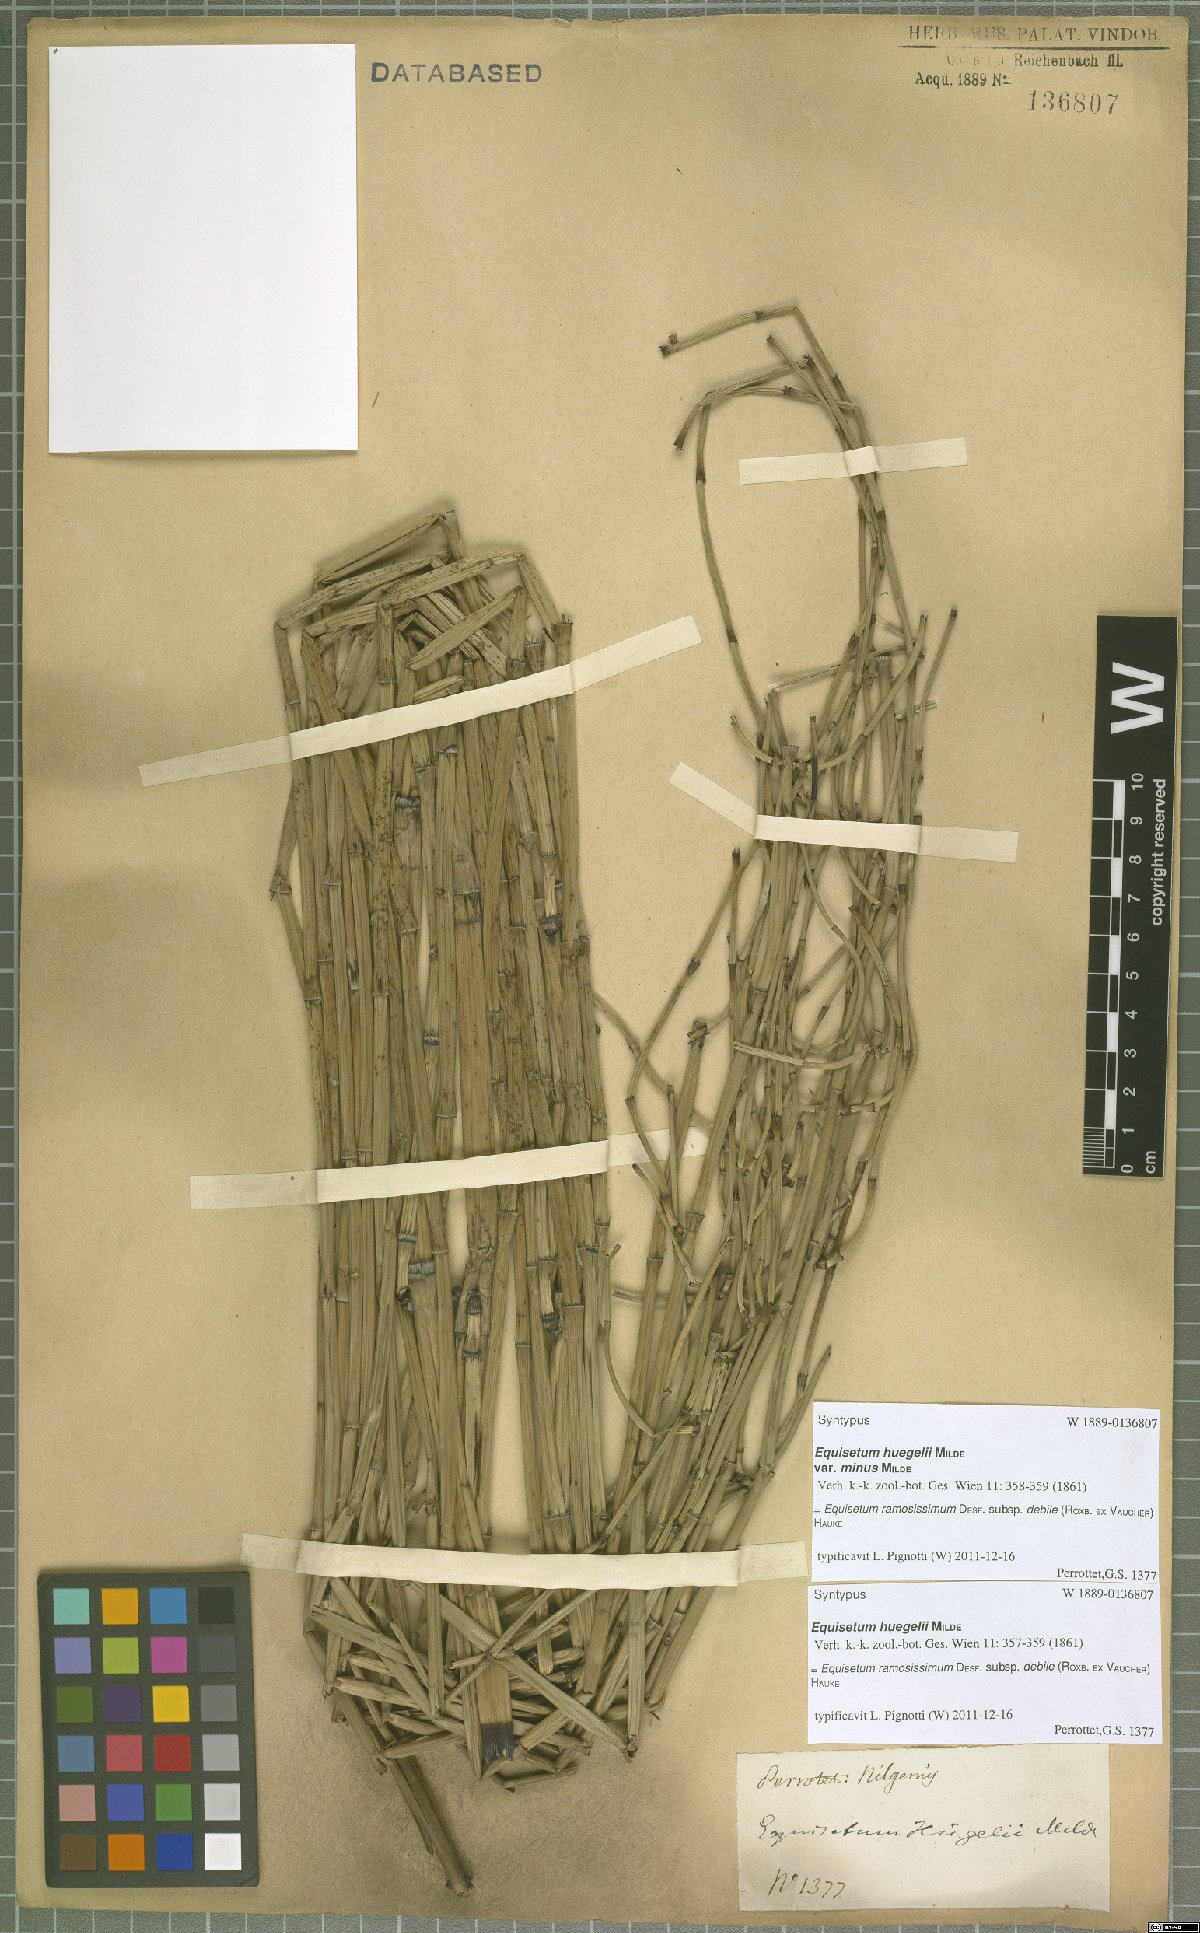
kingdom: Plantae
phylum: Tracheophyta
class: Polypodiopsida
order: Equisetales
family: Equisetaceae
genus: Equisetum
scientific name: Equisetum ramosissimum
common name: Branched horsetail
